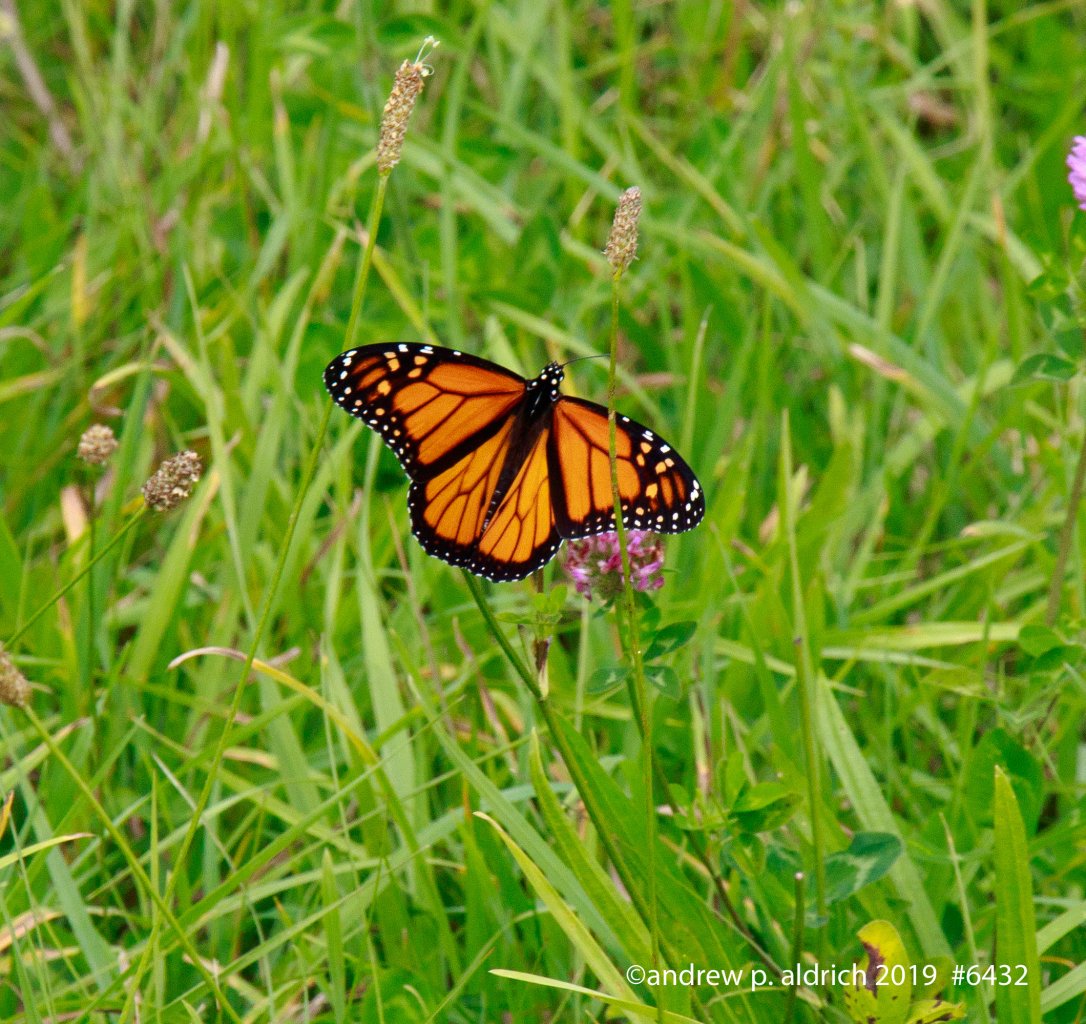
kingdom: Animalia
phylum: Arthropoda
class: Insecta
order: Lepidoptera
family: Nymphalidae
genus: Danaus
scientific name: Danaus plexippus
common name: Monarch
